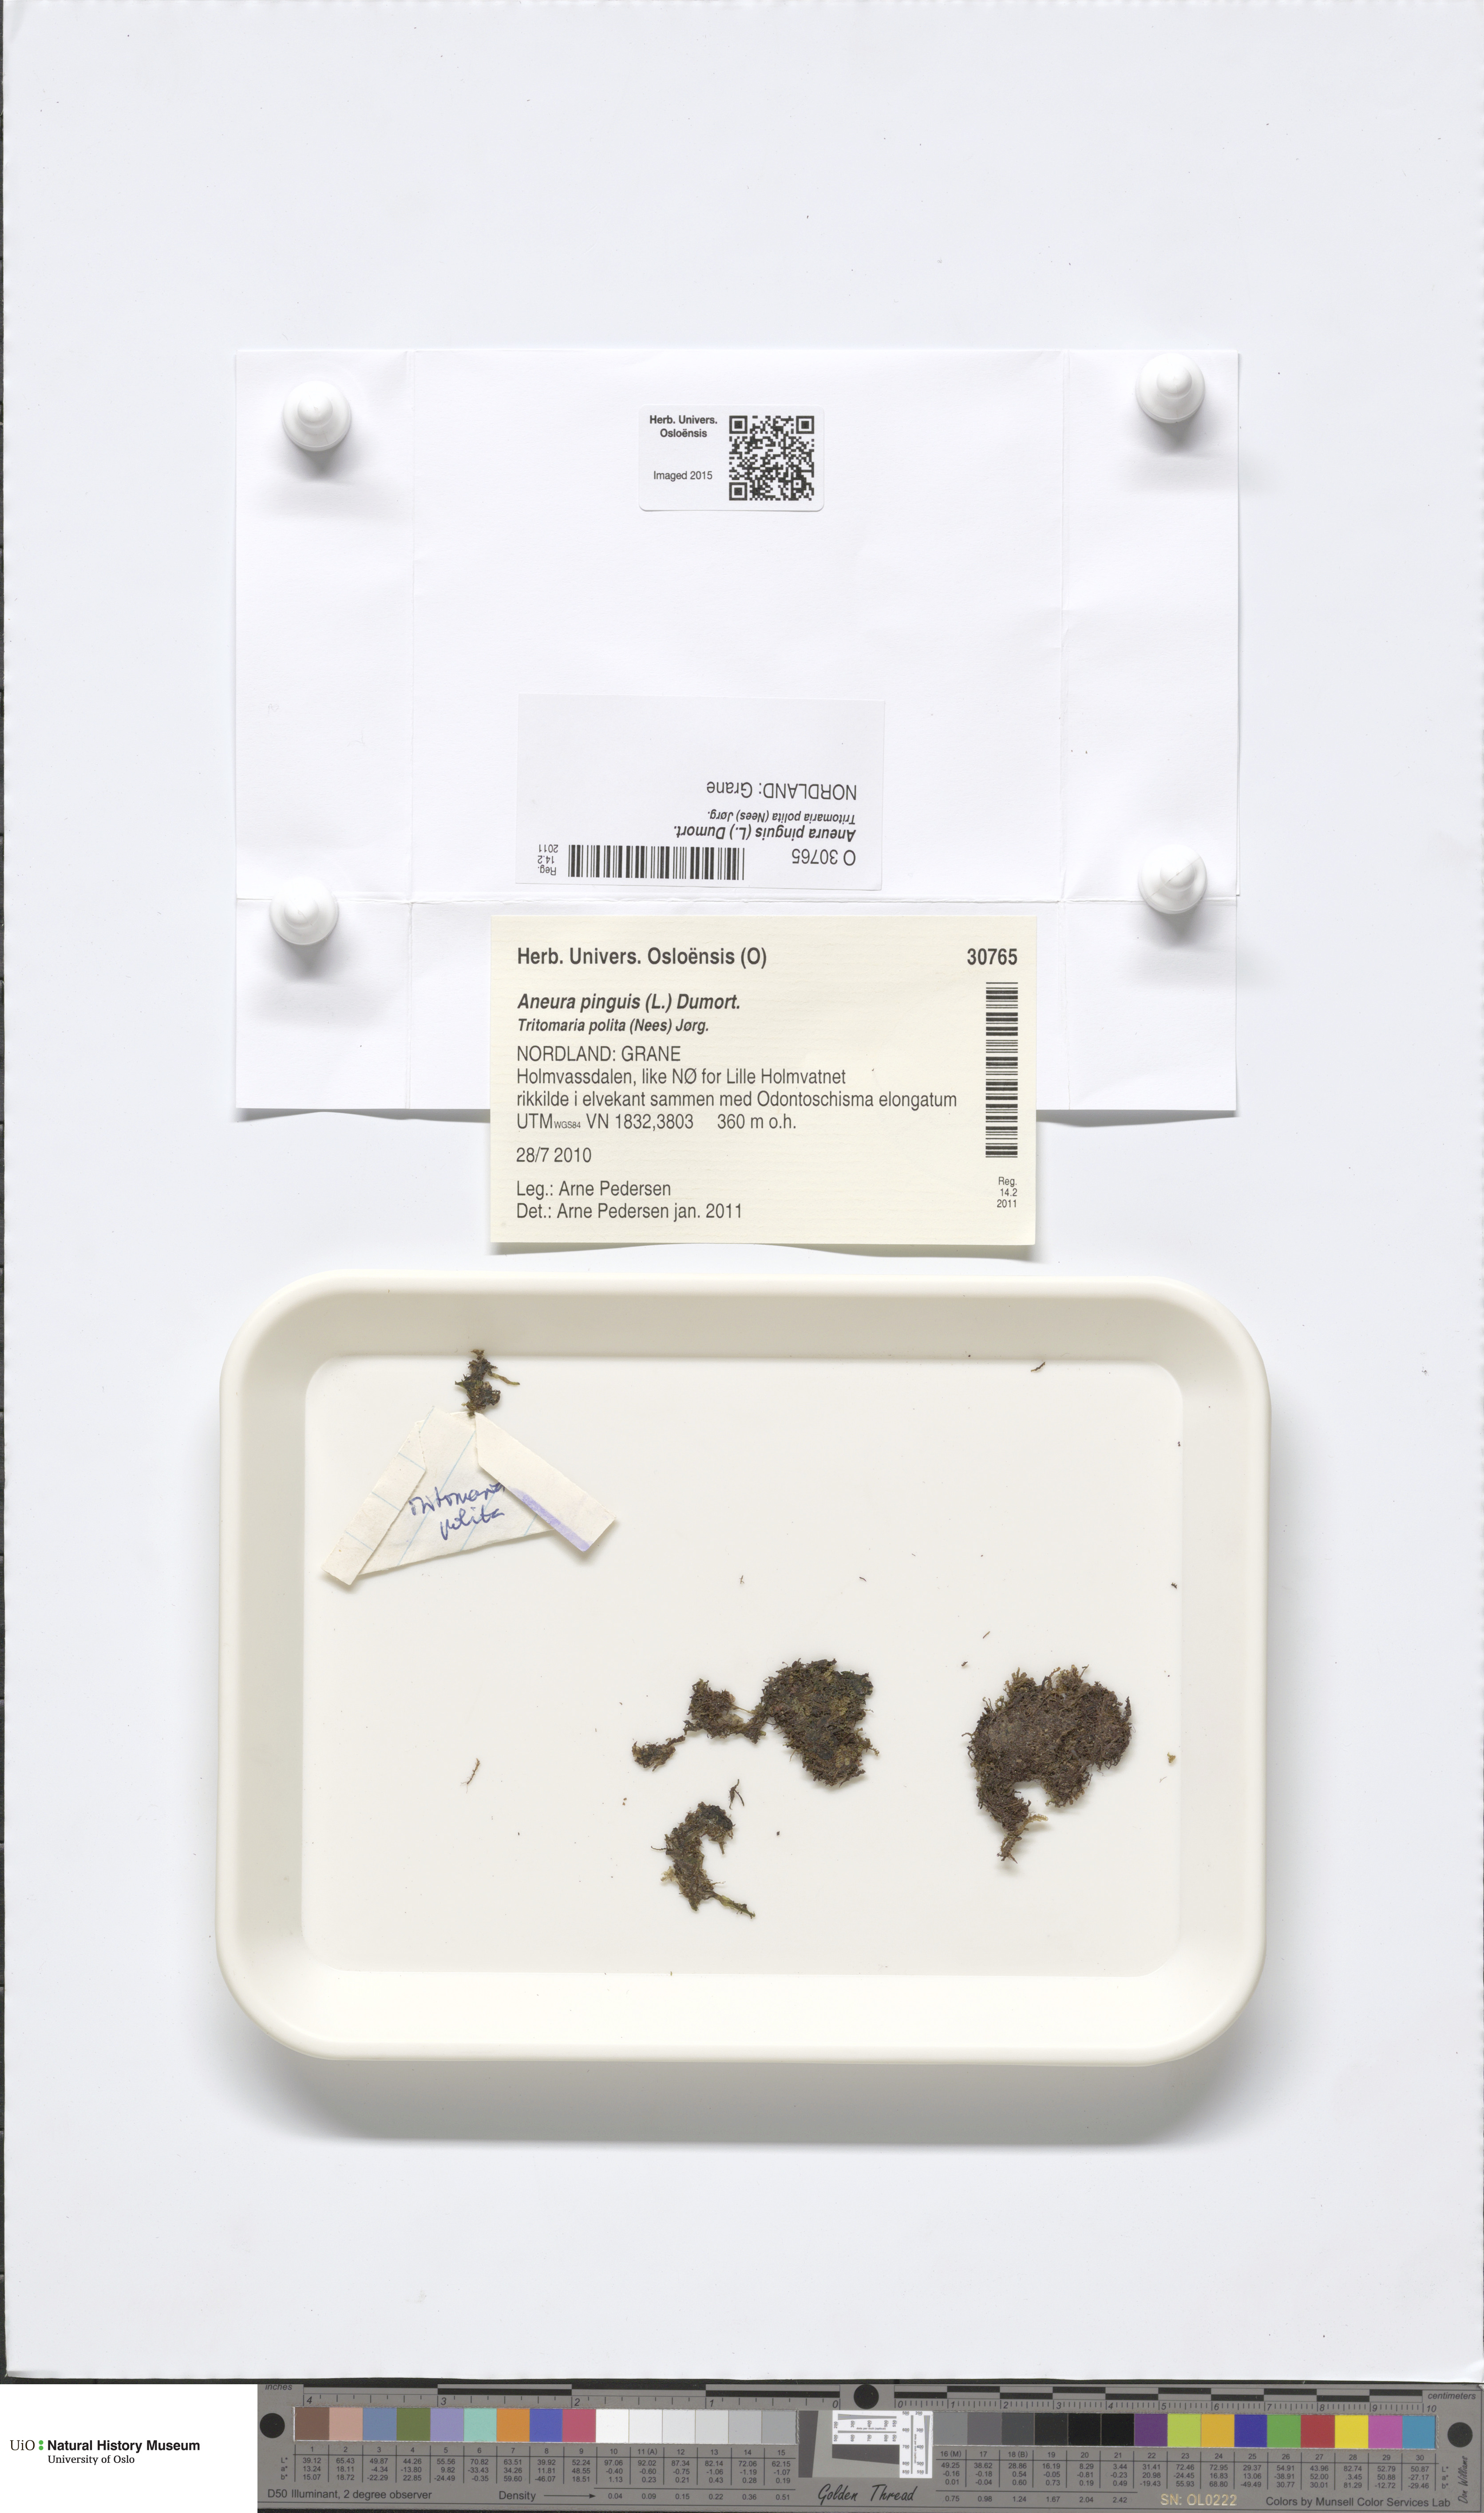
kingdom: Plantae
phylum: Marchantiophyta
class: Jungermanniopsida
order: Metzgeriales
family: Aneuraceae
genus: Aneura
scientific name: Aneura pinguis
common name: Common greasewort
